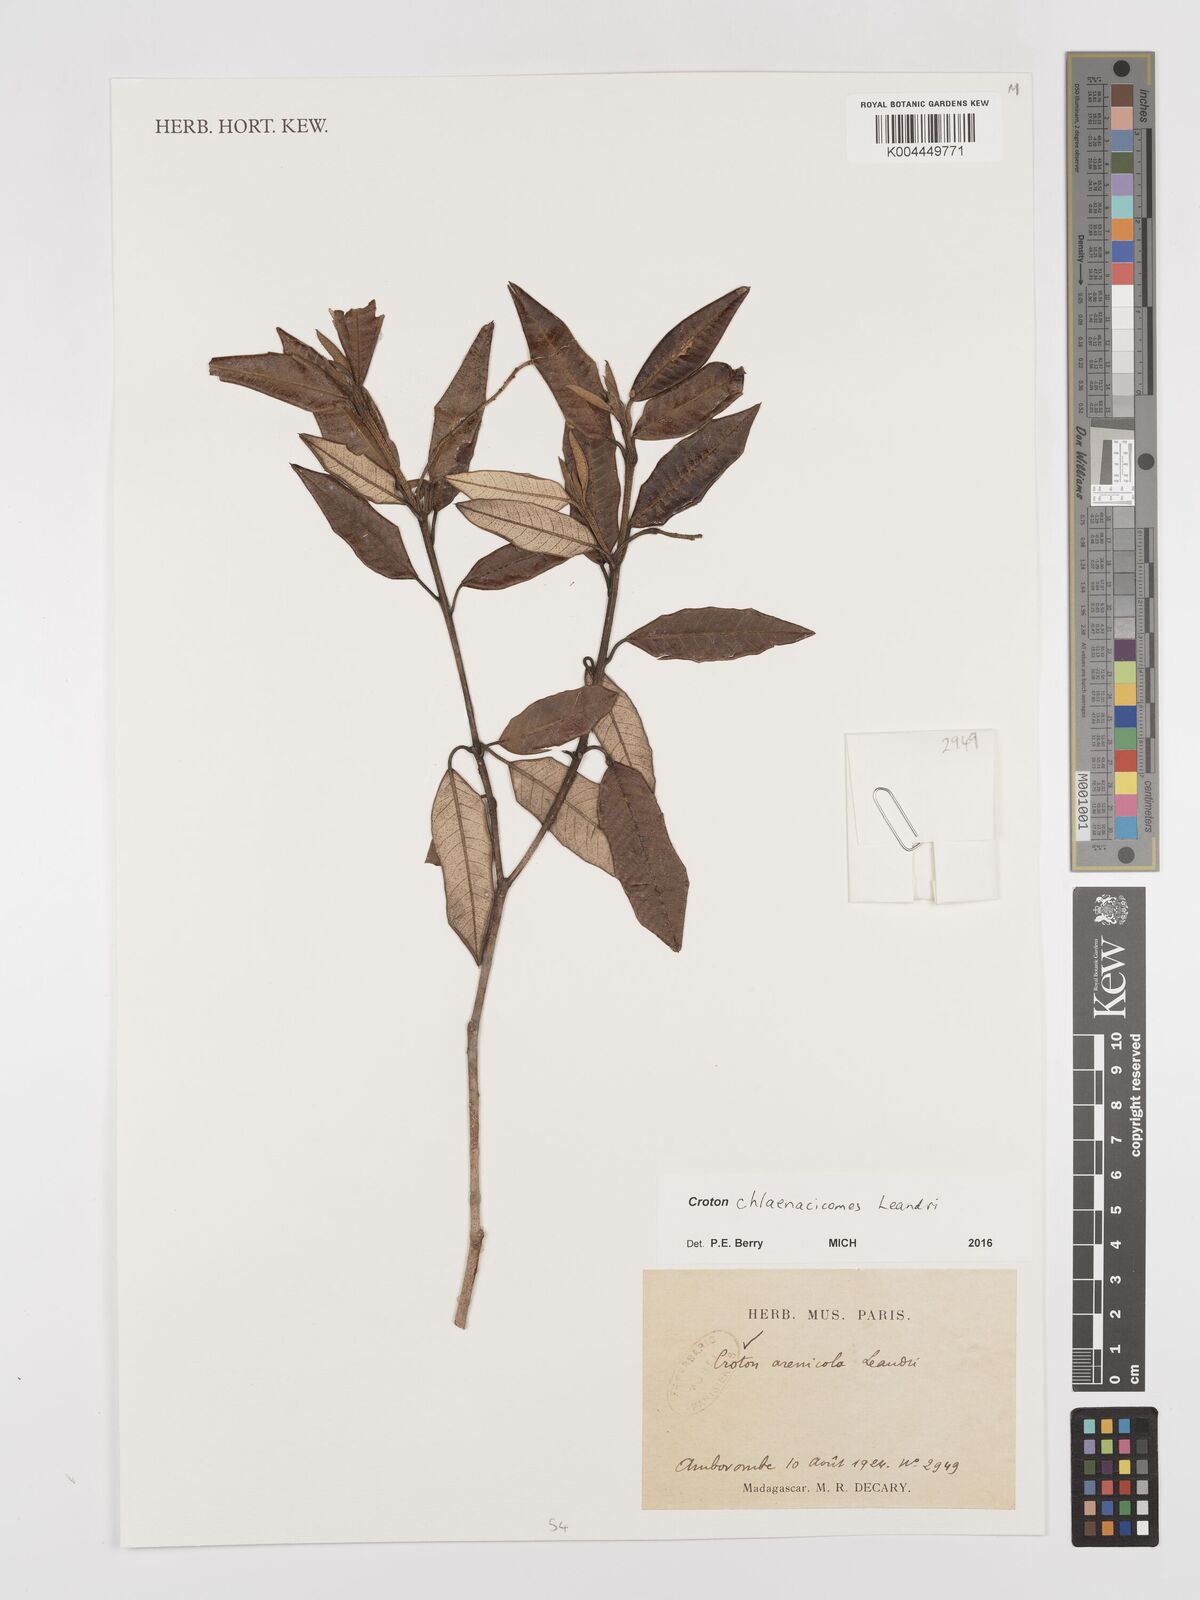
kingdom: Plantae
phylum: Tracheophyta
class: Magnoliopsida
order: Malpighiales
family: Euphorbiaceae
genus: Croton
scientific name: Croton chlaenacicomes
